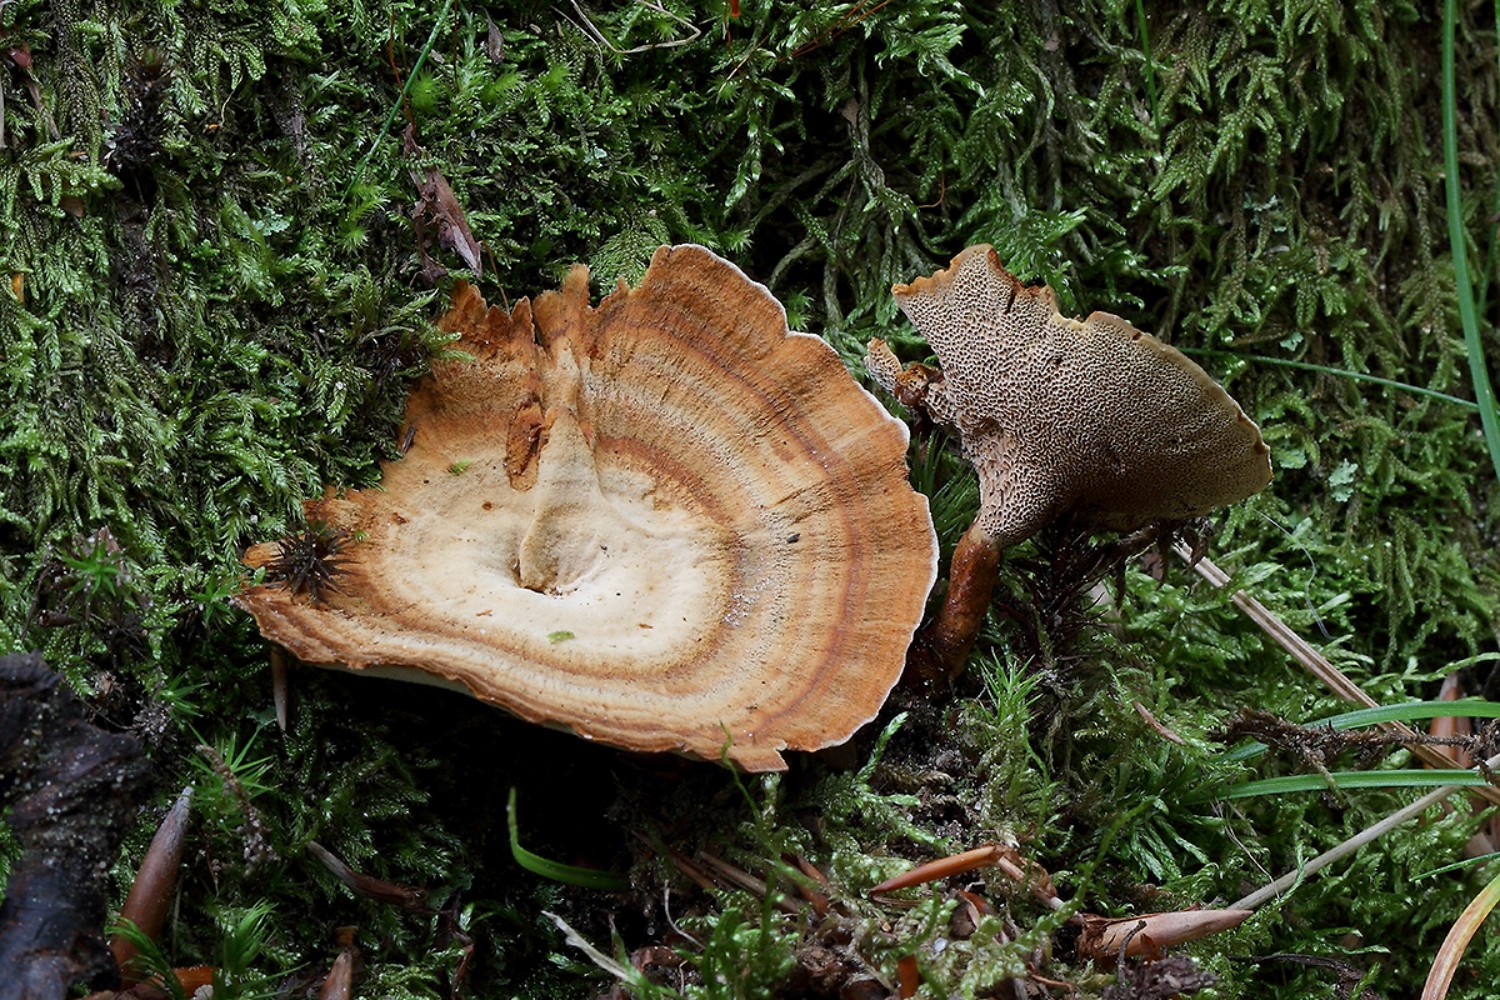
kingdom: Fungi
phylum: Basidiomycota
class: Agaricomycetes
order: Hymenochaetales
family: Hymenochaetaceae
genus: Coltricia
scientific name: Coltricia
